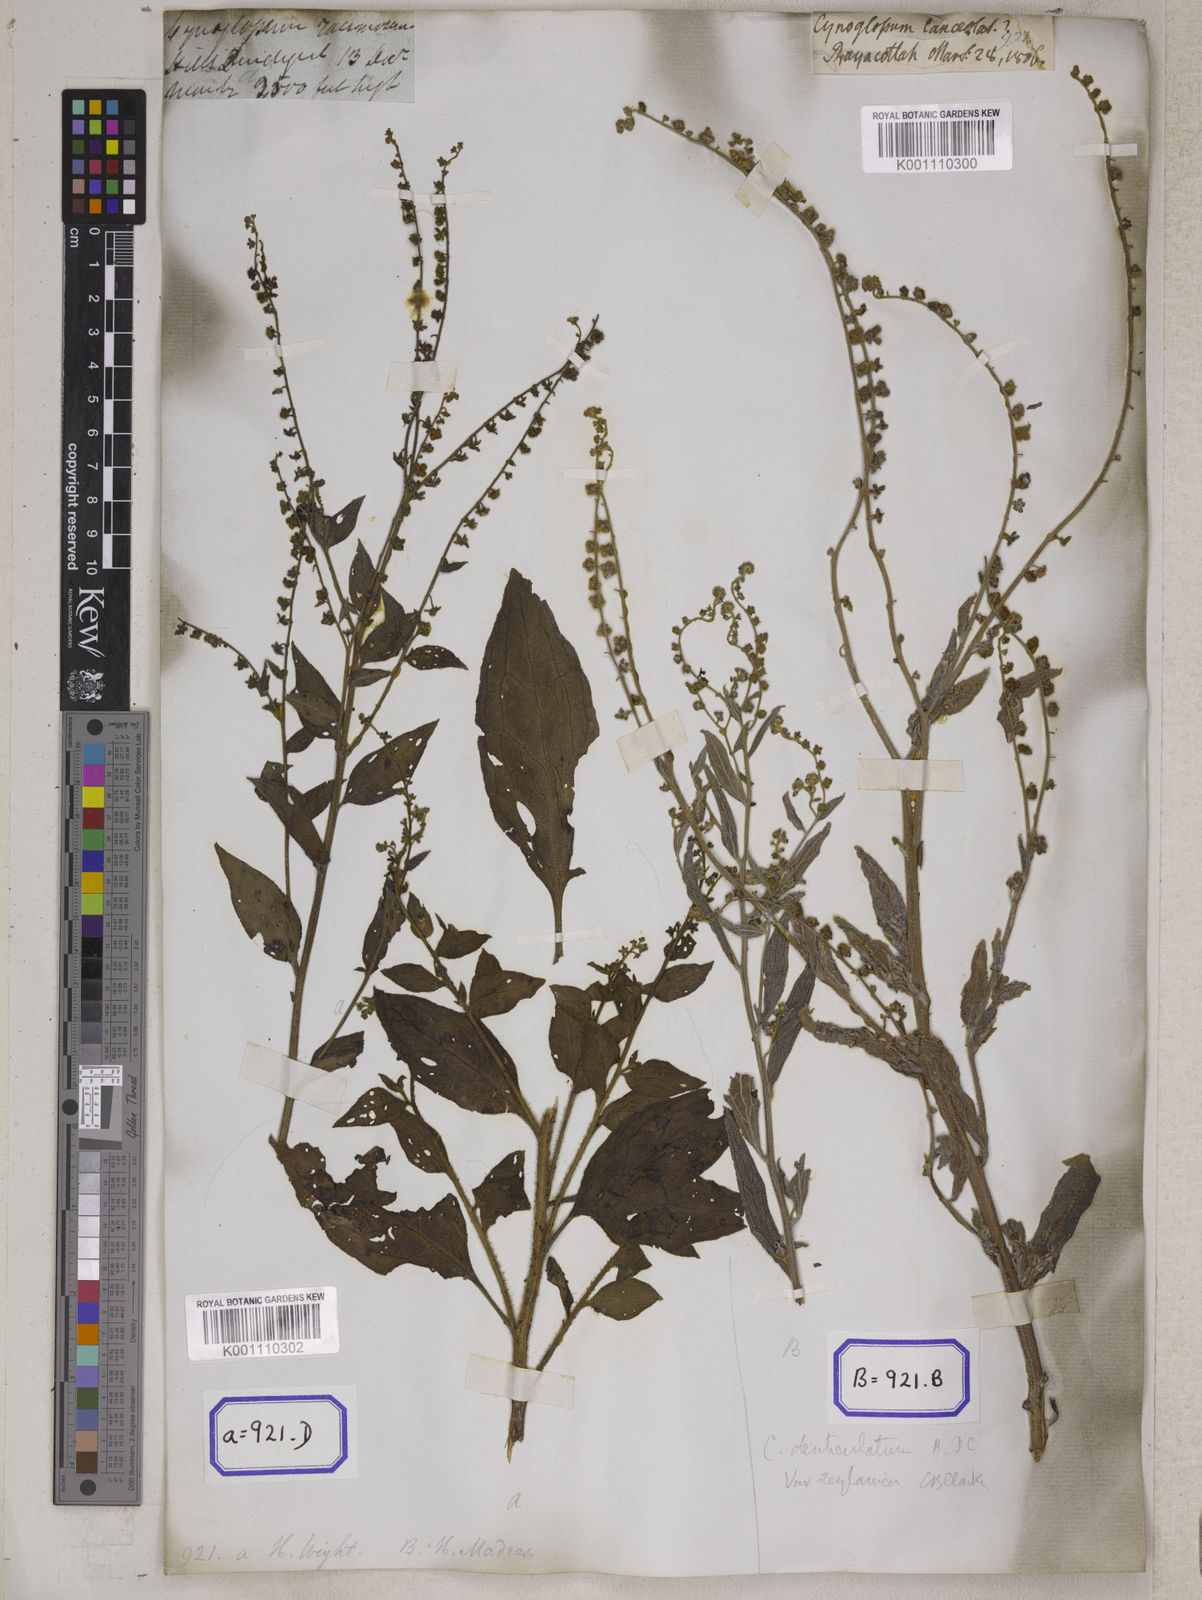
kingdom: Plantae
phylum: Tracheophyta
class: Magnoliopsida
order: Boraginales
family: Boraginaceae
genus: Cynoglossum
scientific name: Cynoglossum
